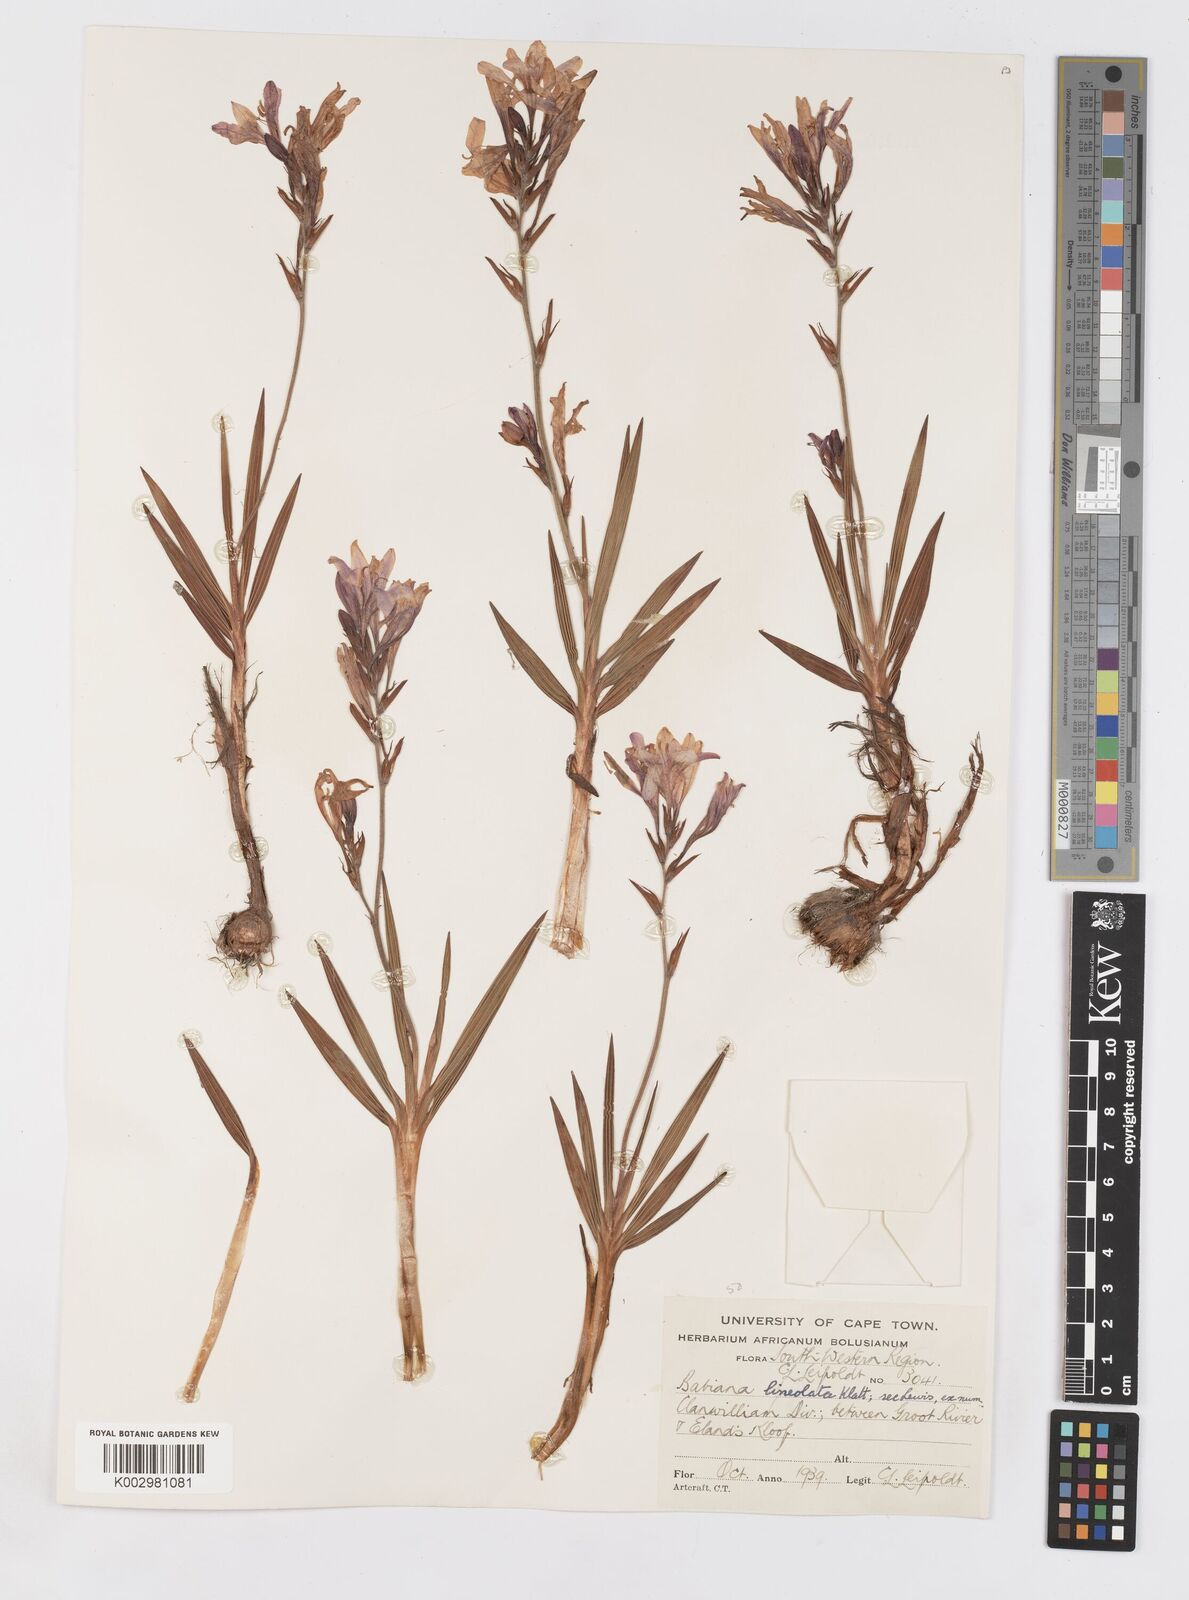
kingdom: Plantae
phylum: Tracheophyta
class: Liliopsida
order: Asparagales
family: Iridaceae
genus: Babiana
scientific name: Babiana lineolata
